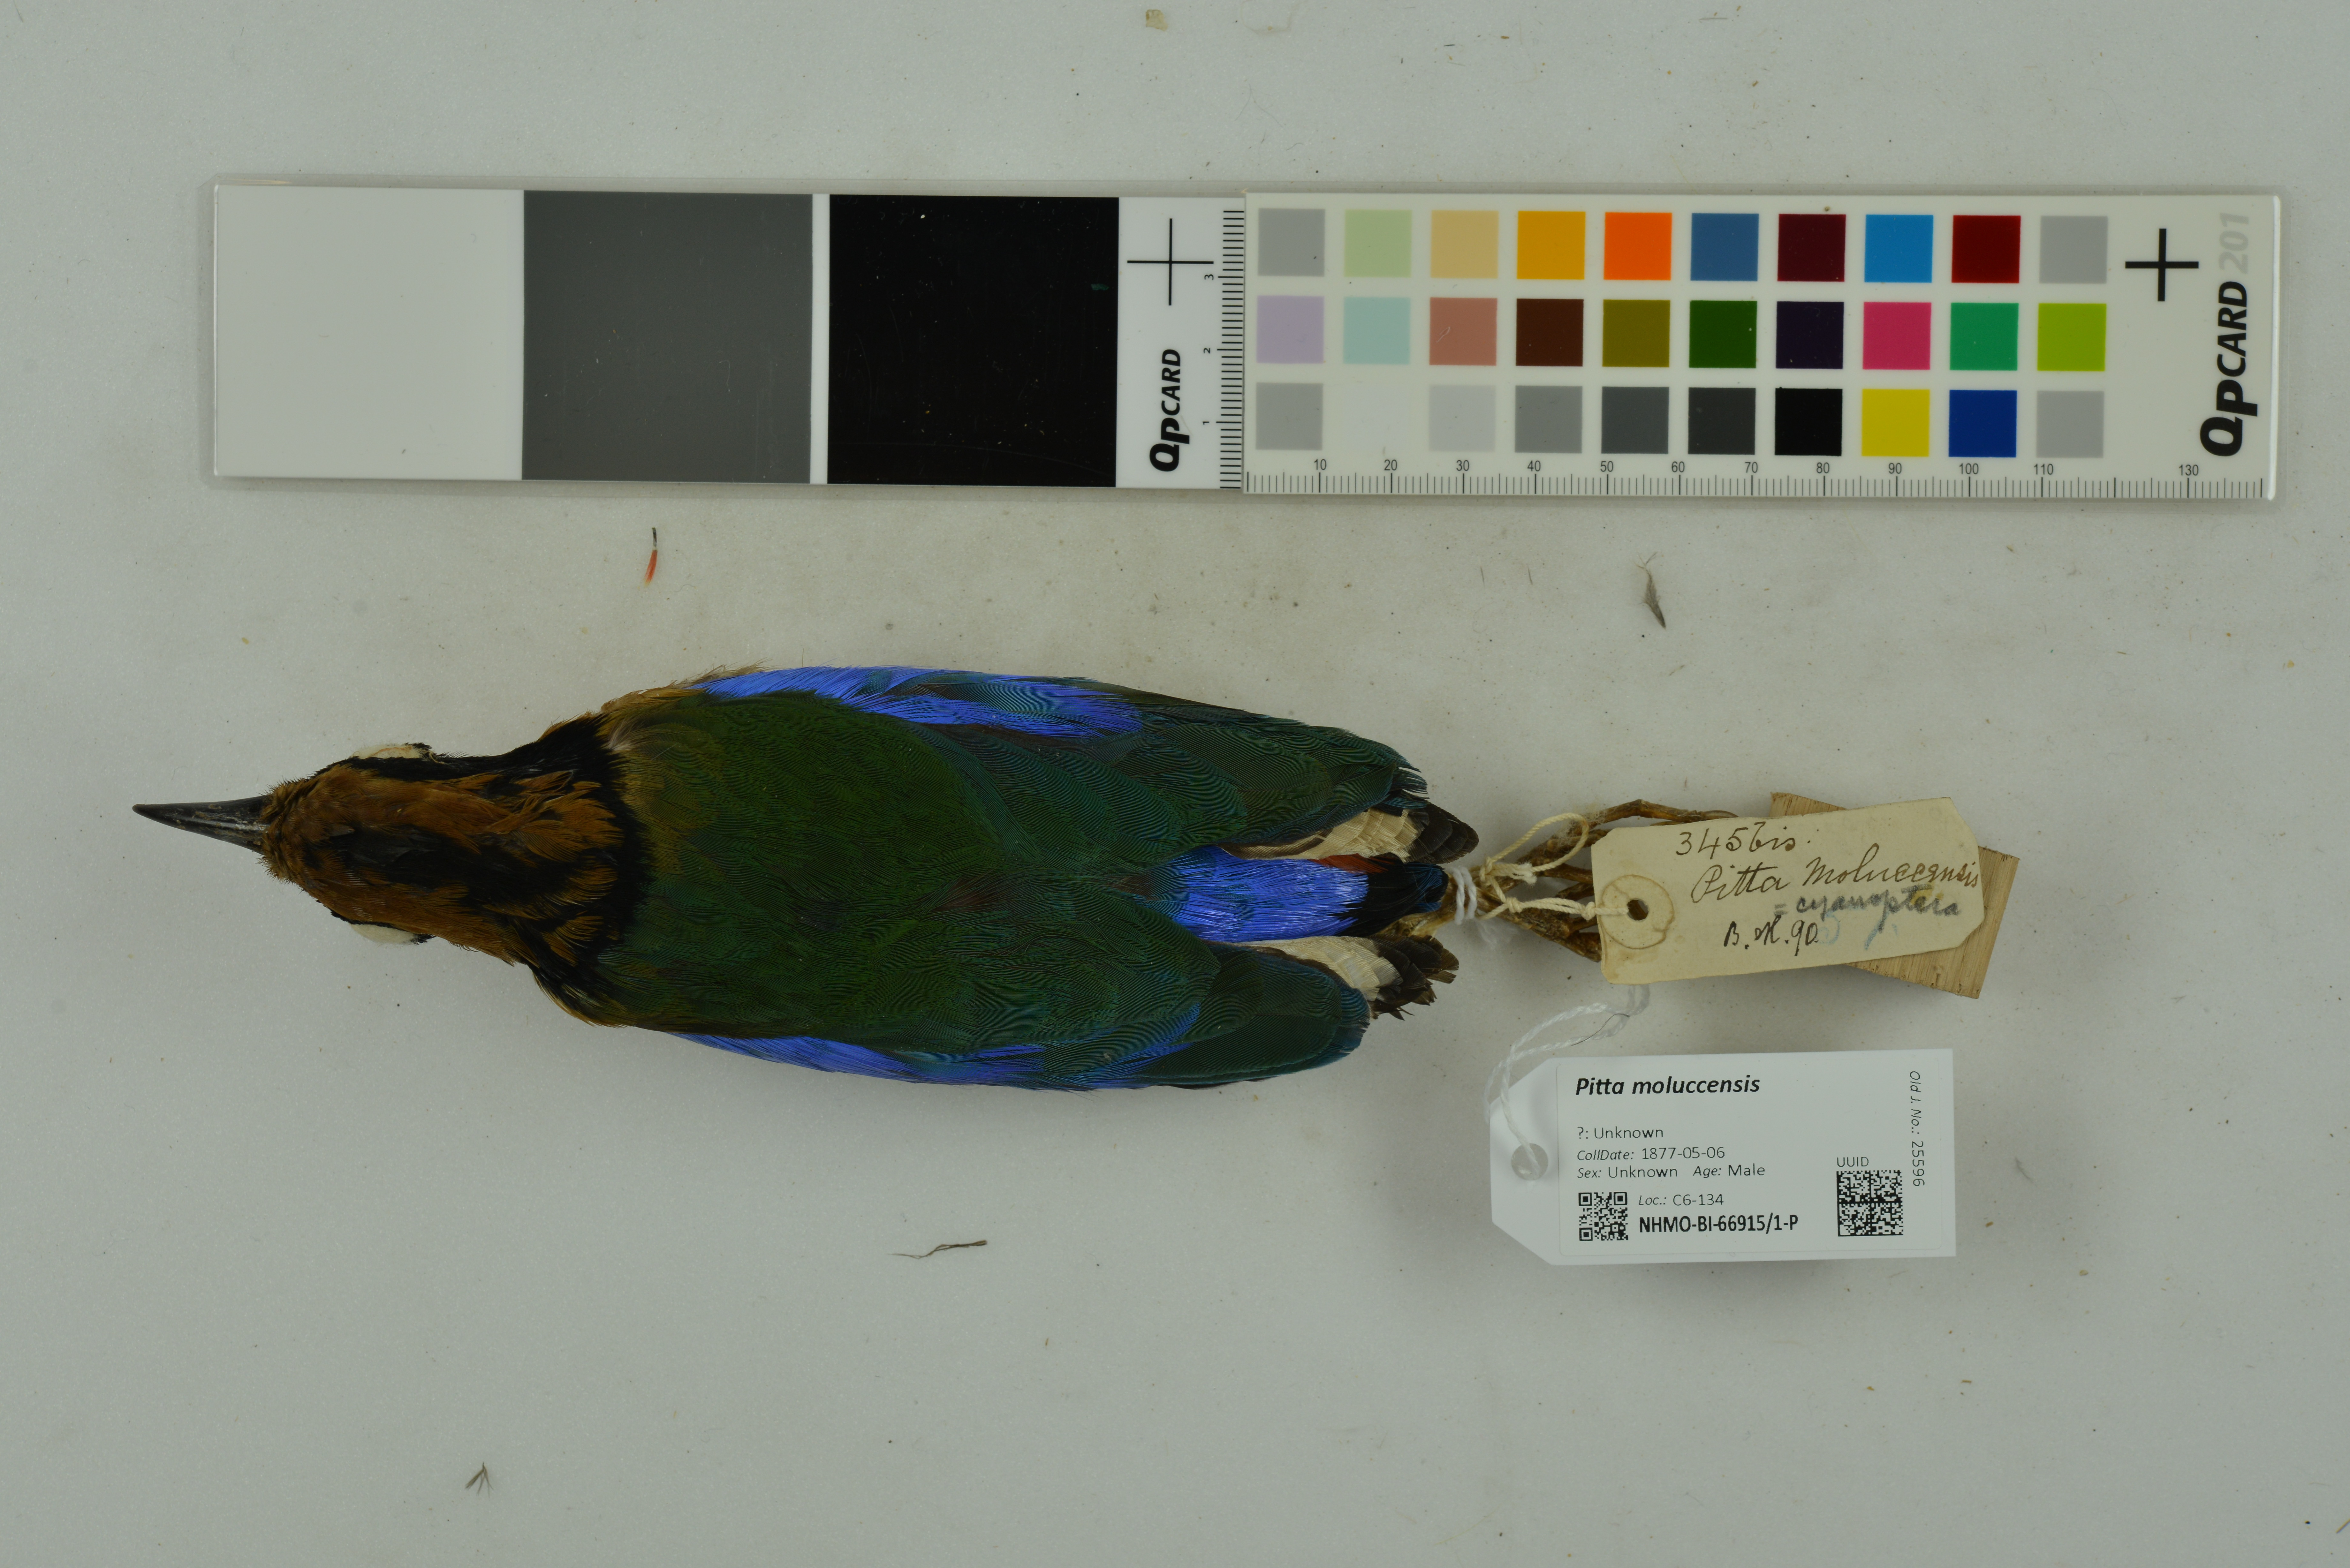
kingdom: Animalia
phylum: Chordata
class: Aves
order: Passeriformes
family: Pittidae
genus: Pitta
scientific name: Pitta moluccensis
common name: Blue-winged pitta
